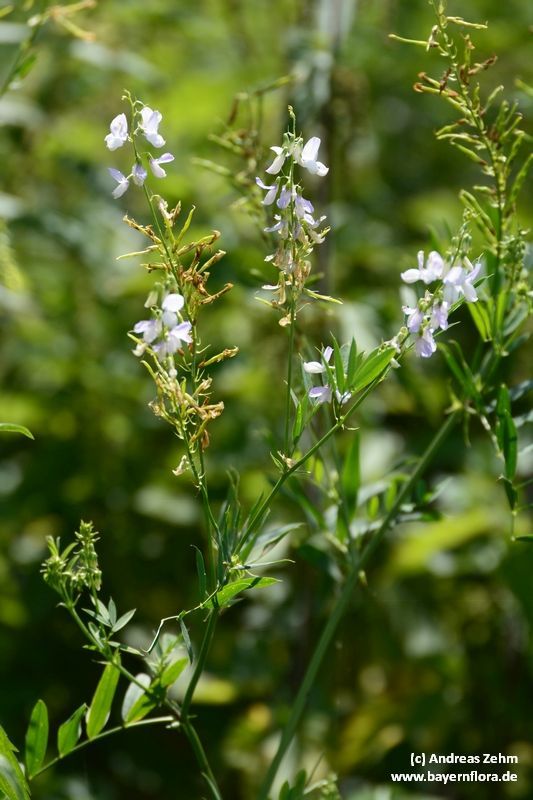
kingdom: Plantae
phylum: Tracheophyta
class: Magnoliopsida
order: Fabales
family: Fabaceae
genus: Galega
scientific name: Galega officinalis
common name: Goat's-rue
